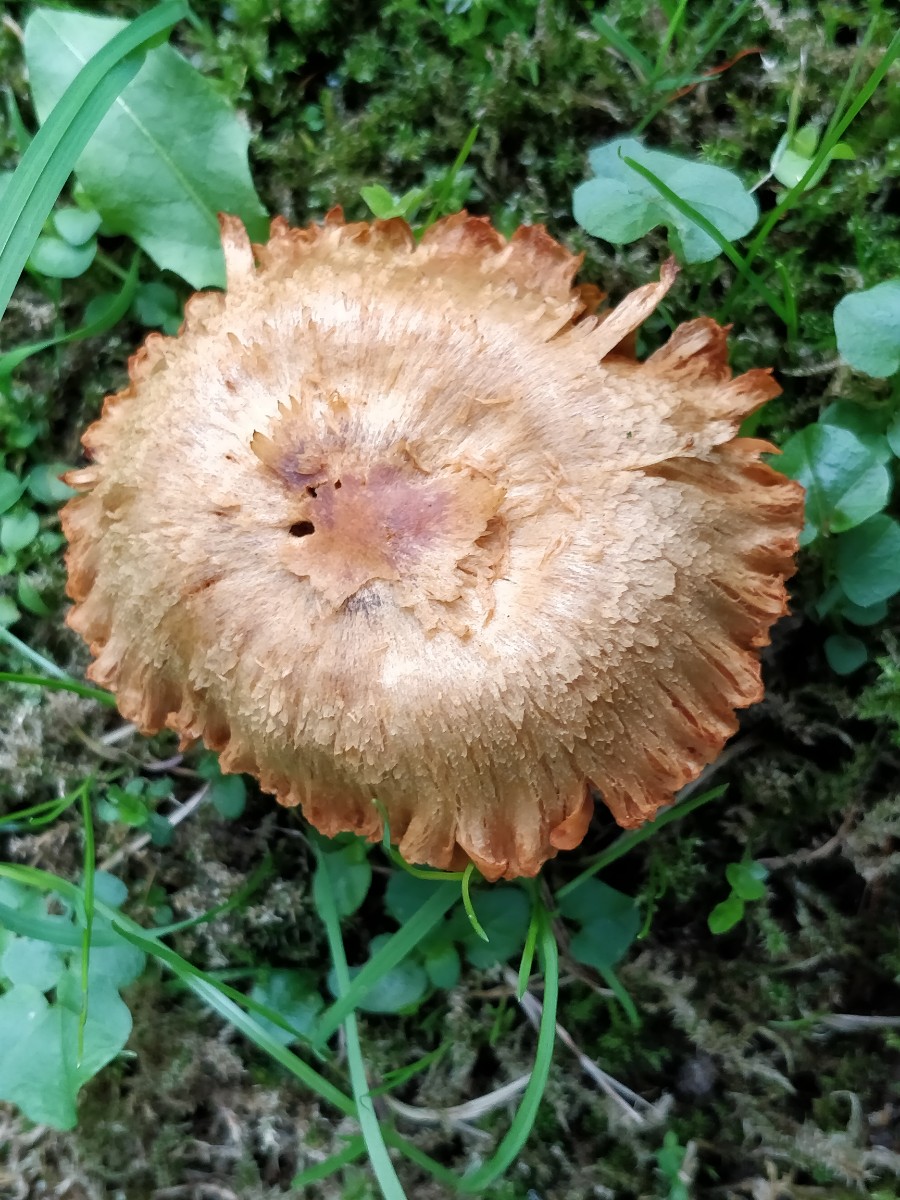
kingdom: Fungi
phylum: Basidiomycota
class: Agaricomycetes
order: Agaricales
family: Cortinariaceae
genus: Cortinarius
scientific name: Cortinarius
